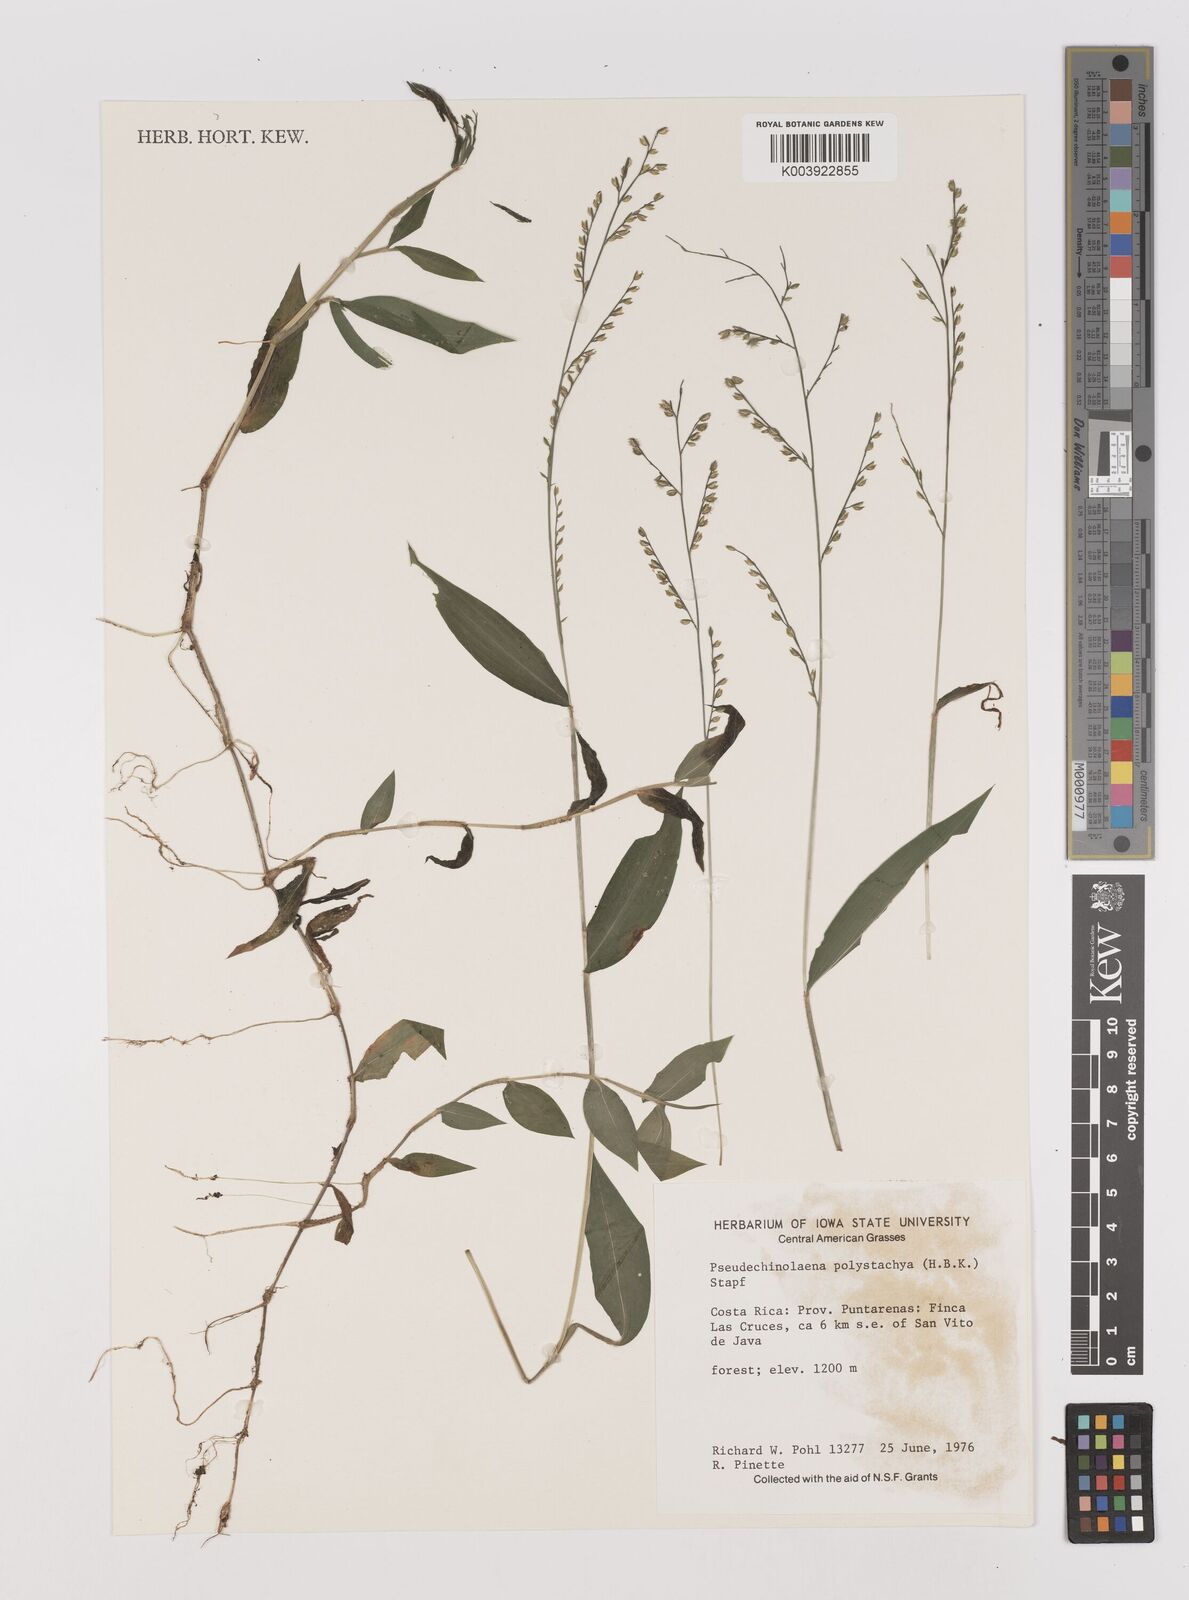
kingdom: Plantae
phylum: Tracheophyta
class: Liliopsida
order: Poales
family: Poaceae
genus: Pseudechinolaena
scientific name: Pseudechinolaena polystachya
